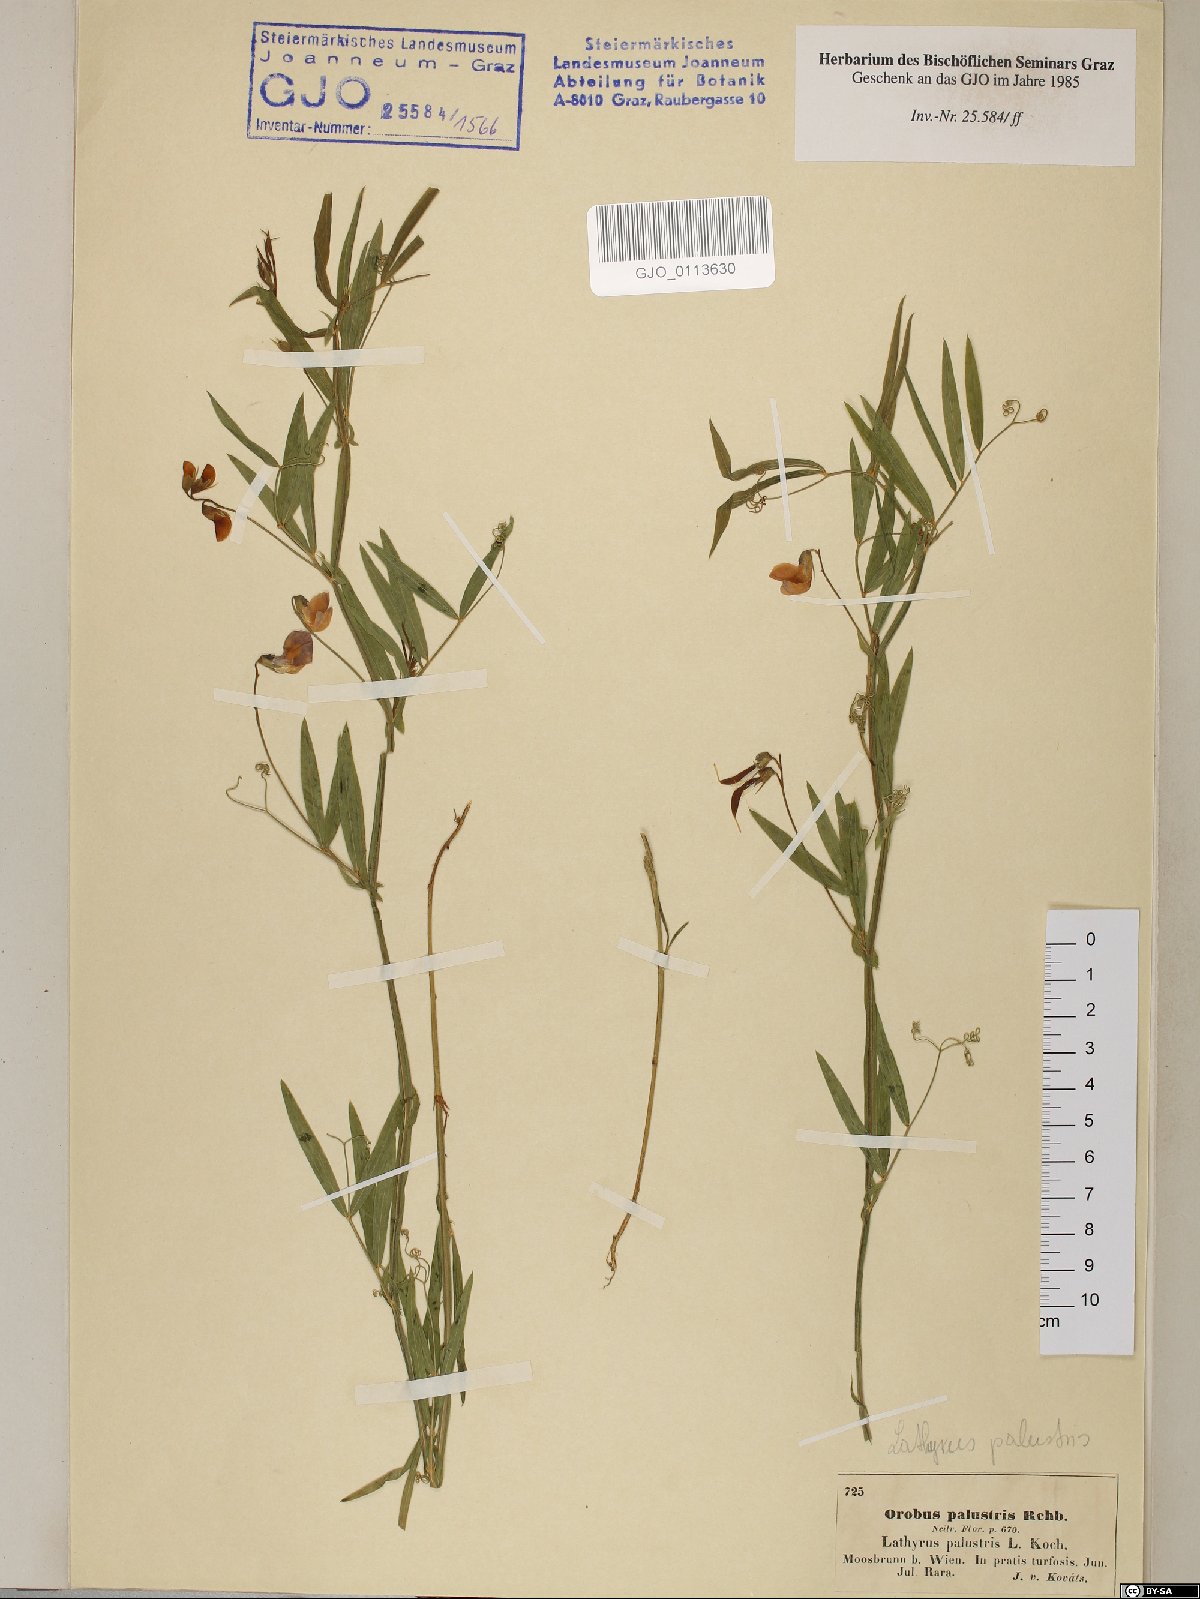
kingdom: Plantae
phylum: Tracheophyta
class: Magnoliopsida
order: Fabales
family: Fabaceae
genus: Lathyrus
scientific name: Lathyrus palustris
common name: Marsh pea
